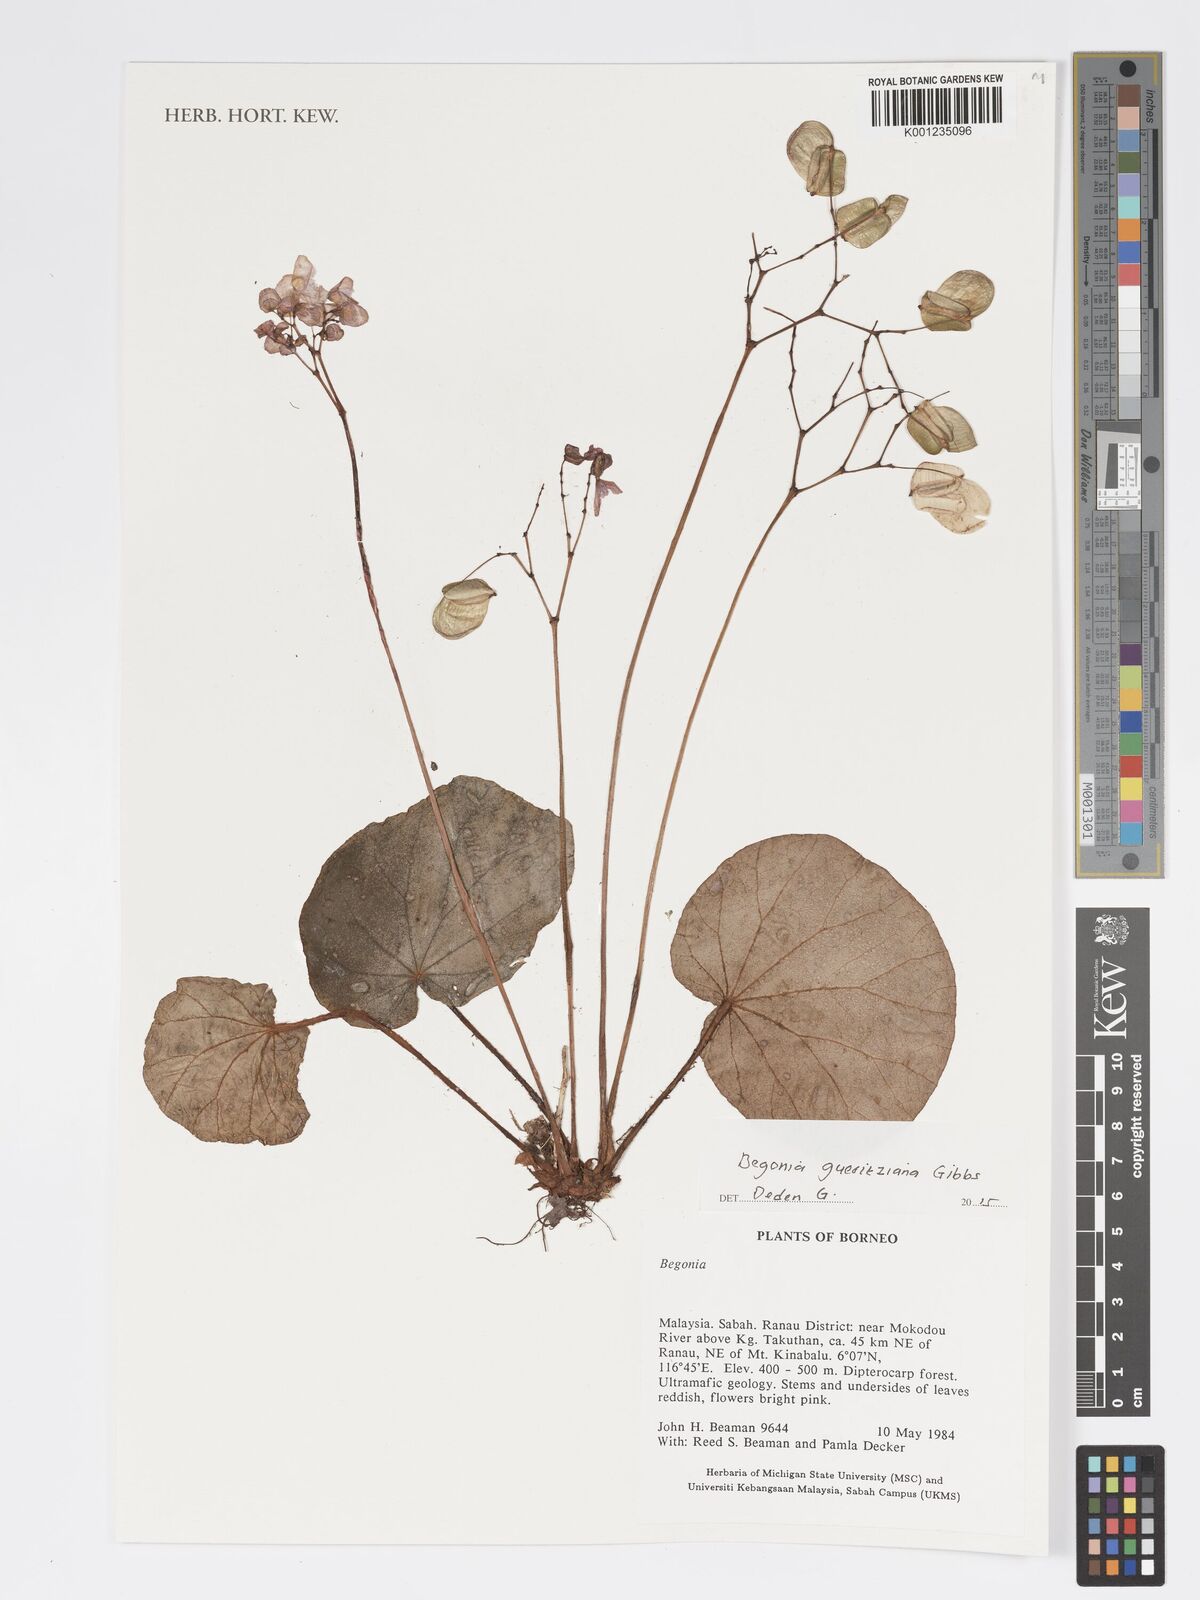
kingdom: Plantae
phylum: Tracheophyta
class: Magnoliopsida
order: Cucurbitales
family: Begoniaceae
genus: Begonia
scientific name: Begonia gueritziana
